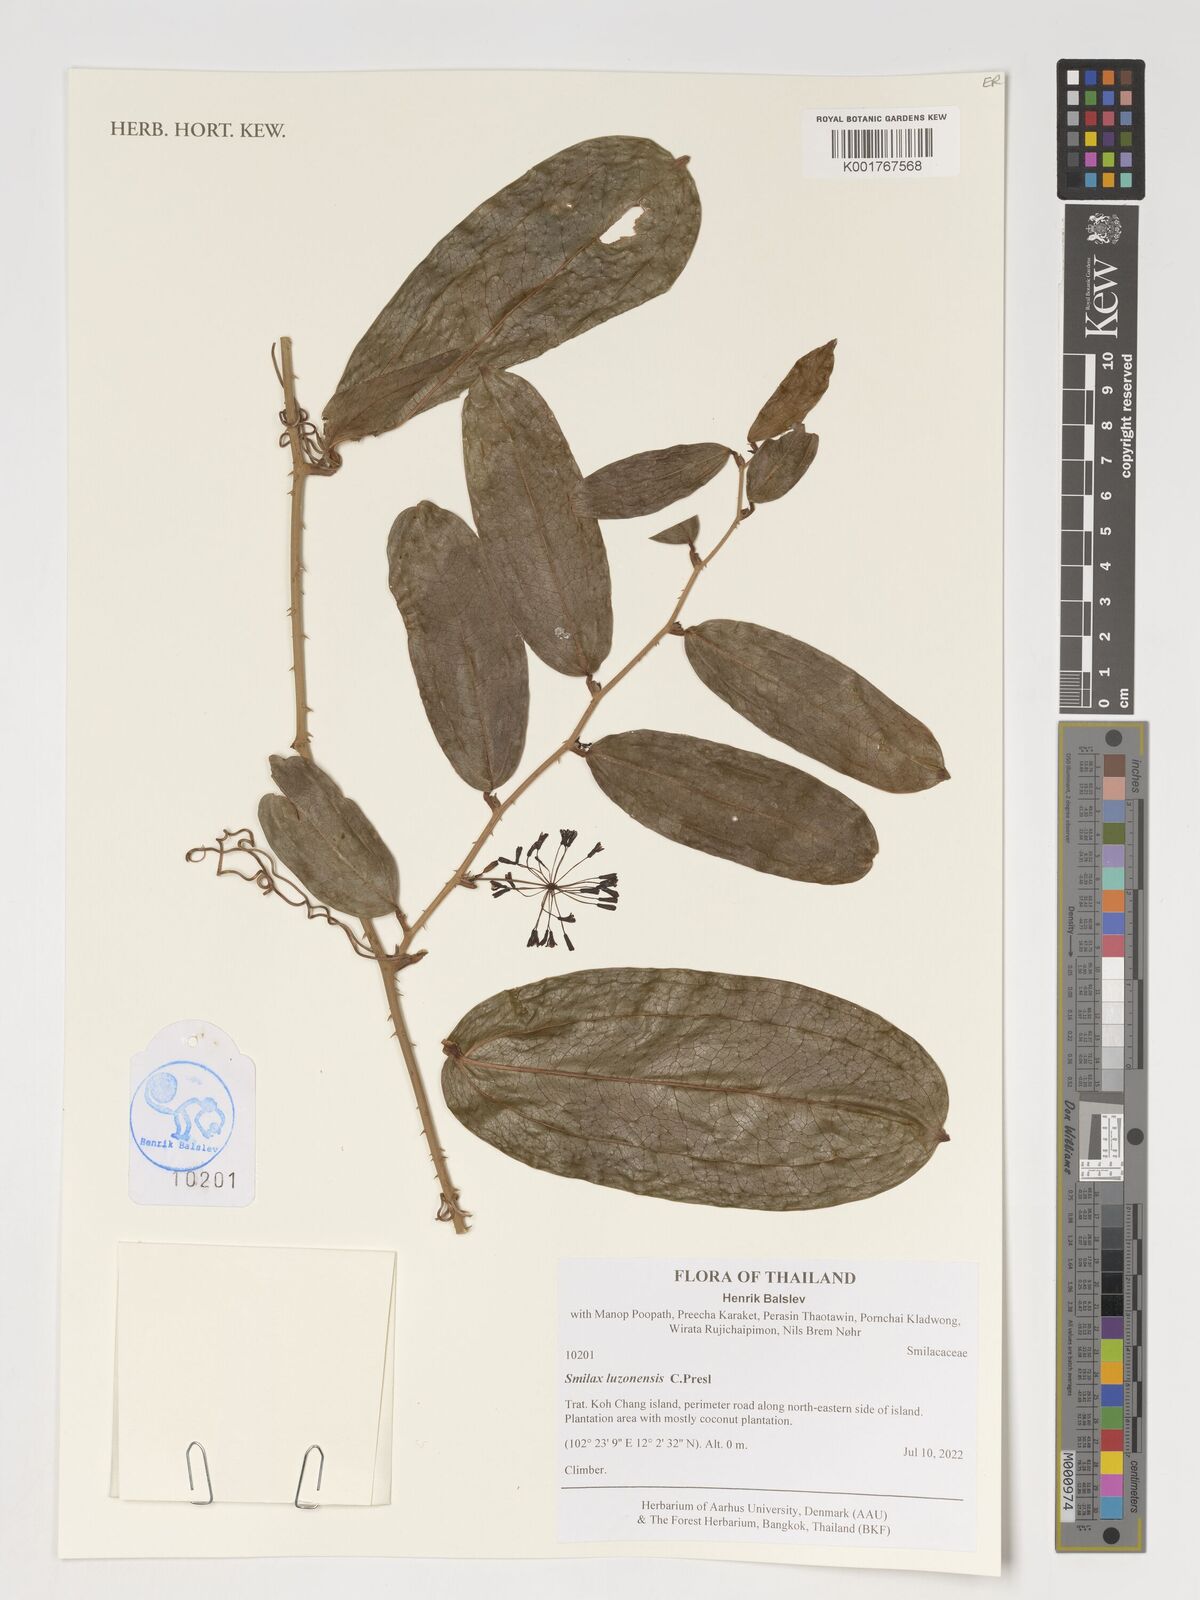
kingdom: Plantae
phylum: Tracheophyta
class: Liliopsida
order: Liliales
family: Smilacaceae
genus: Smilax
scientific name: Smilax luzonensis
